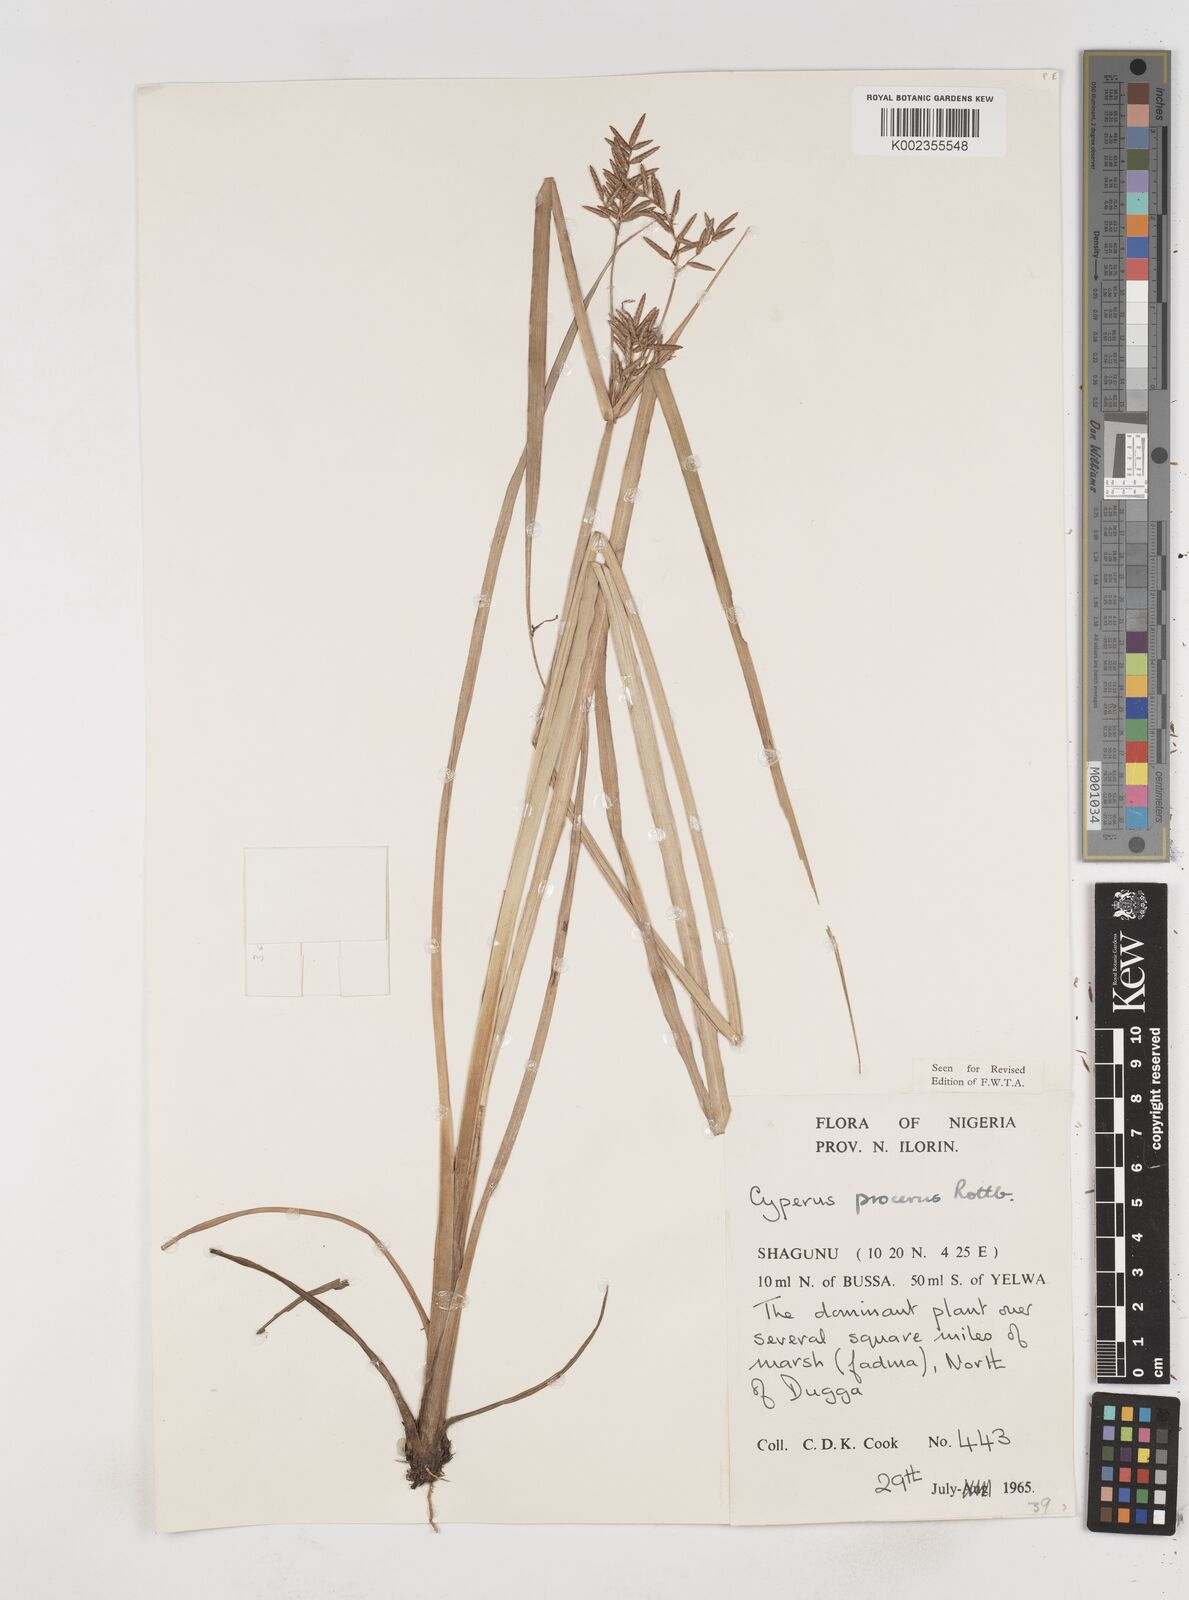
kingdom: Plantae
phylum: Tracheophyta
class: Liliopsida
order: Poales
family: Cyperaceae
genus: Cyperus
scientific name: Cyperus procerus
